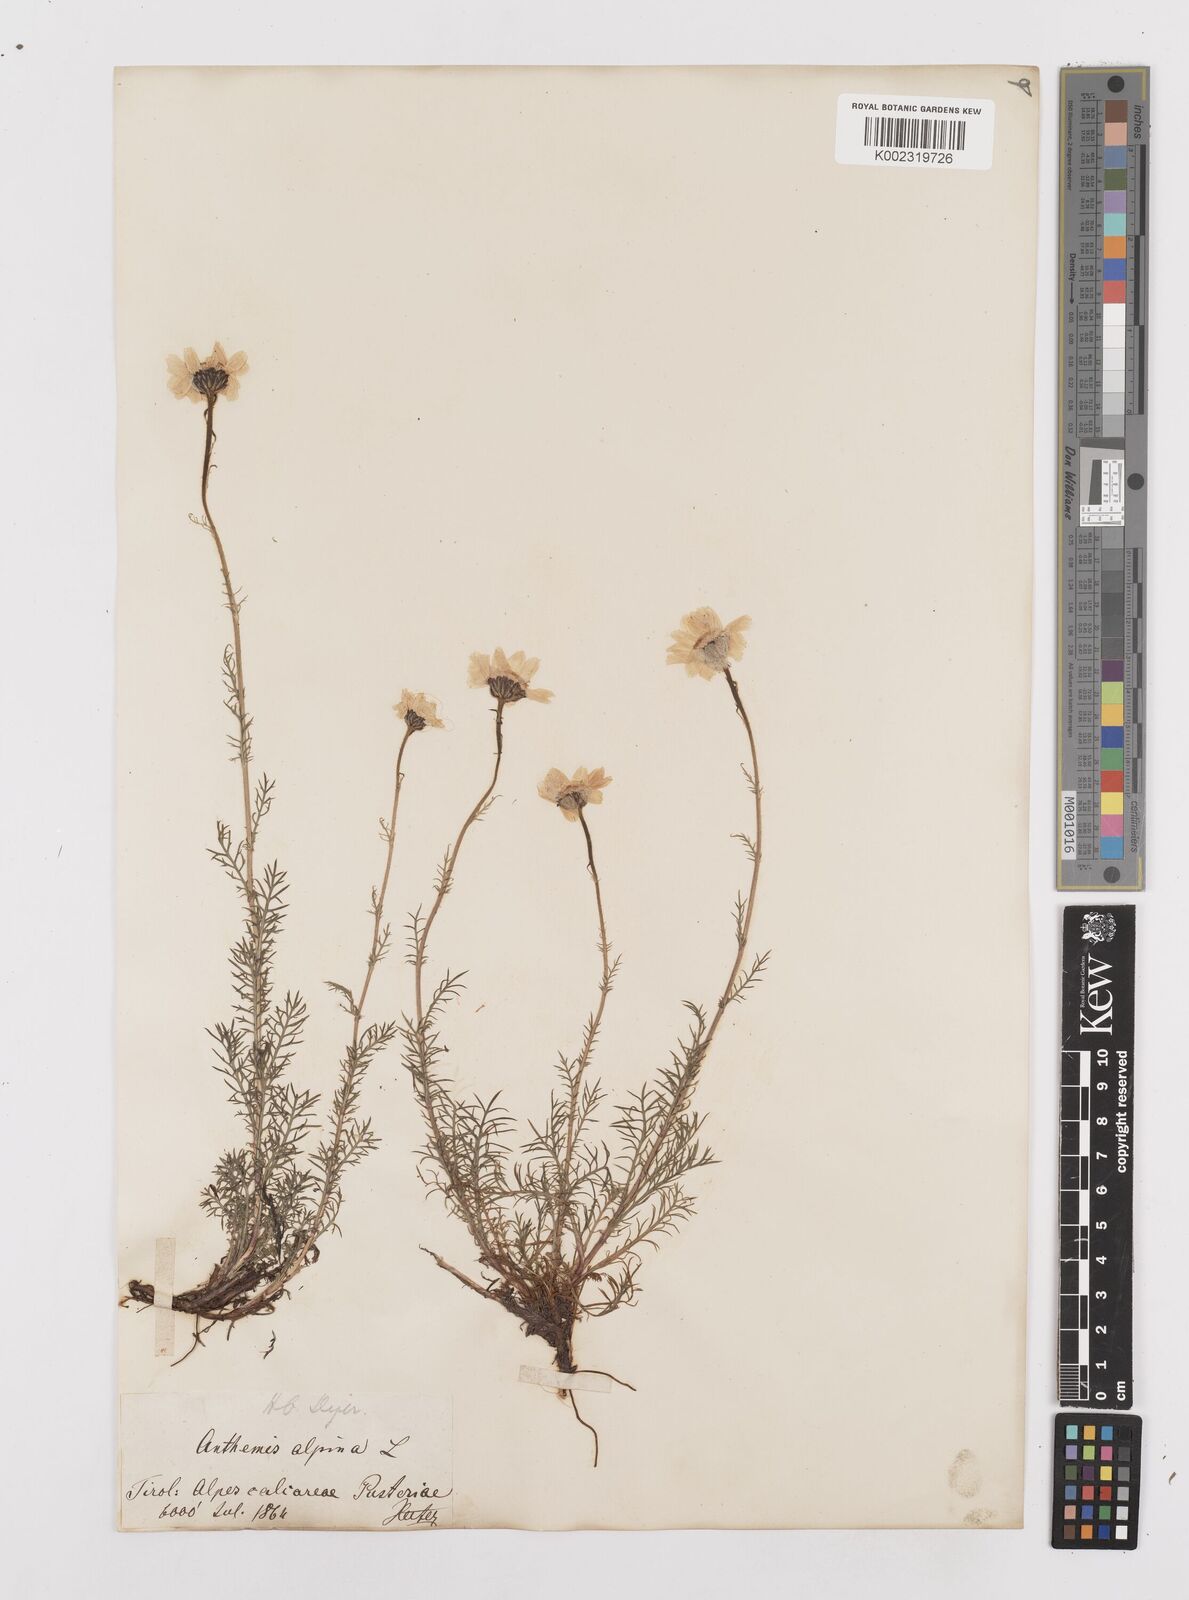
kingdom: Plantae
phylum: Tracheophyta
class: Magnoliopsida
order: Asterales
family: Asteraceae
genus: Achillea
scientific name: Achillea oxyloba
